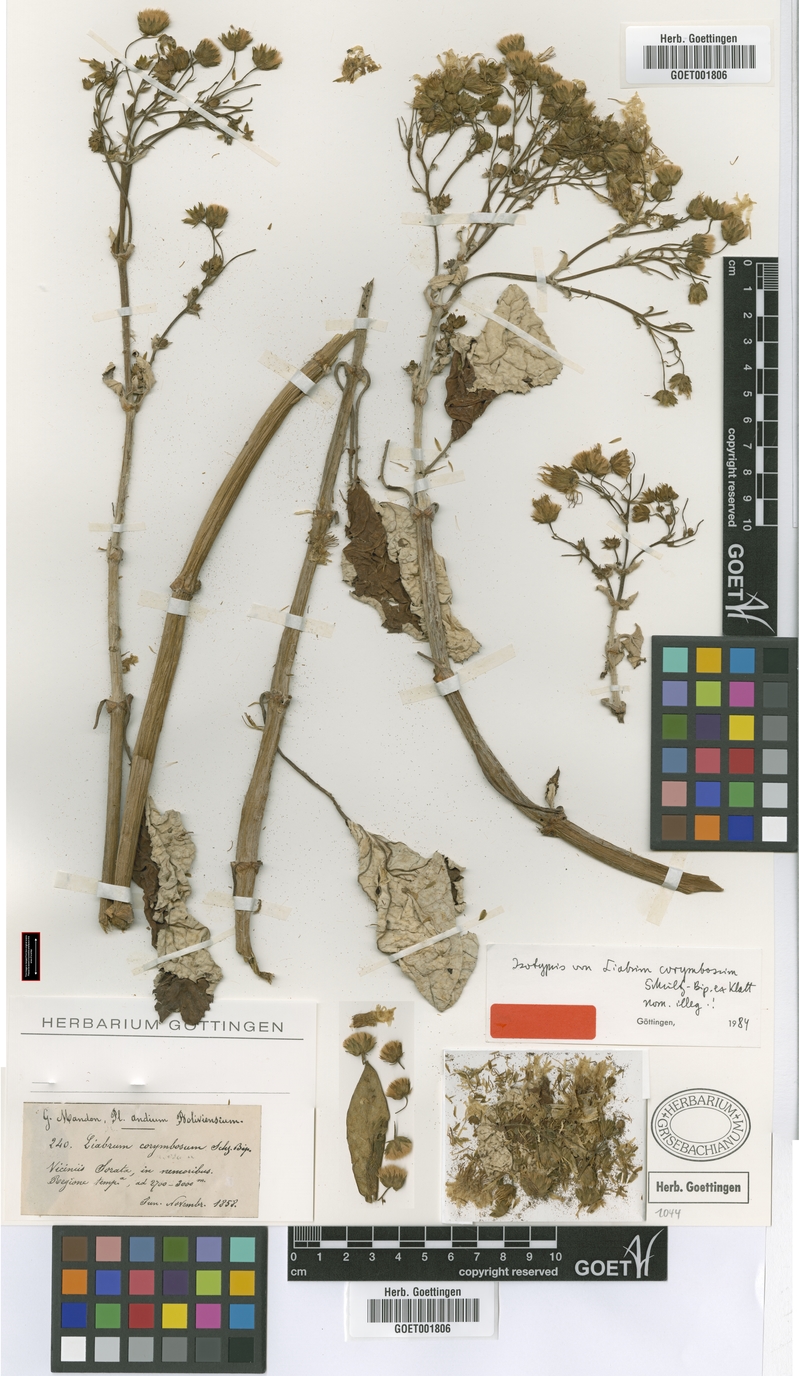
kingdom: Plantae
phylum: Tracheophyta
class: Magnoliopsida
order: Asterales
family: Asteraceae
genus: Munnozia
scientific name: Munnozia maronii
